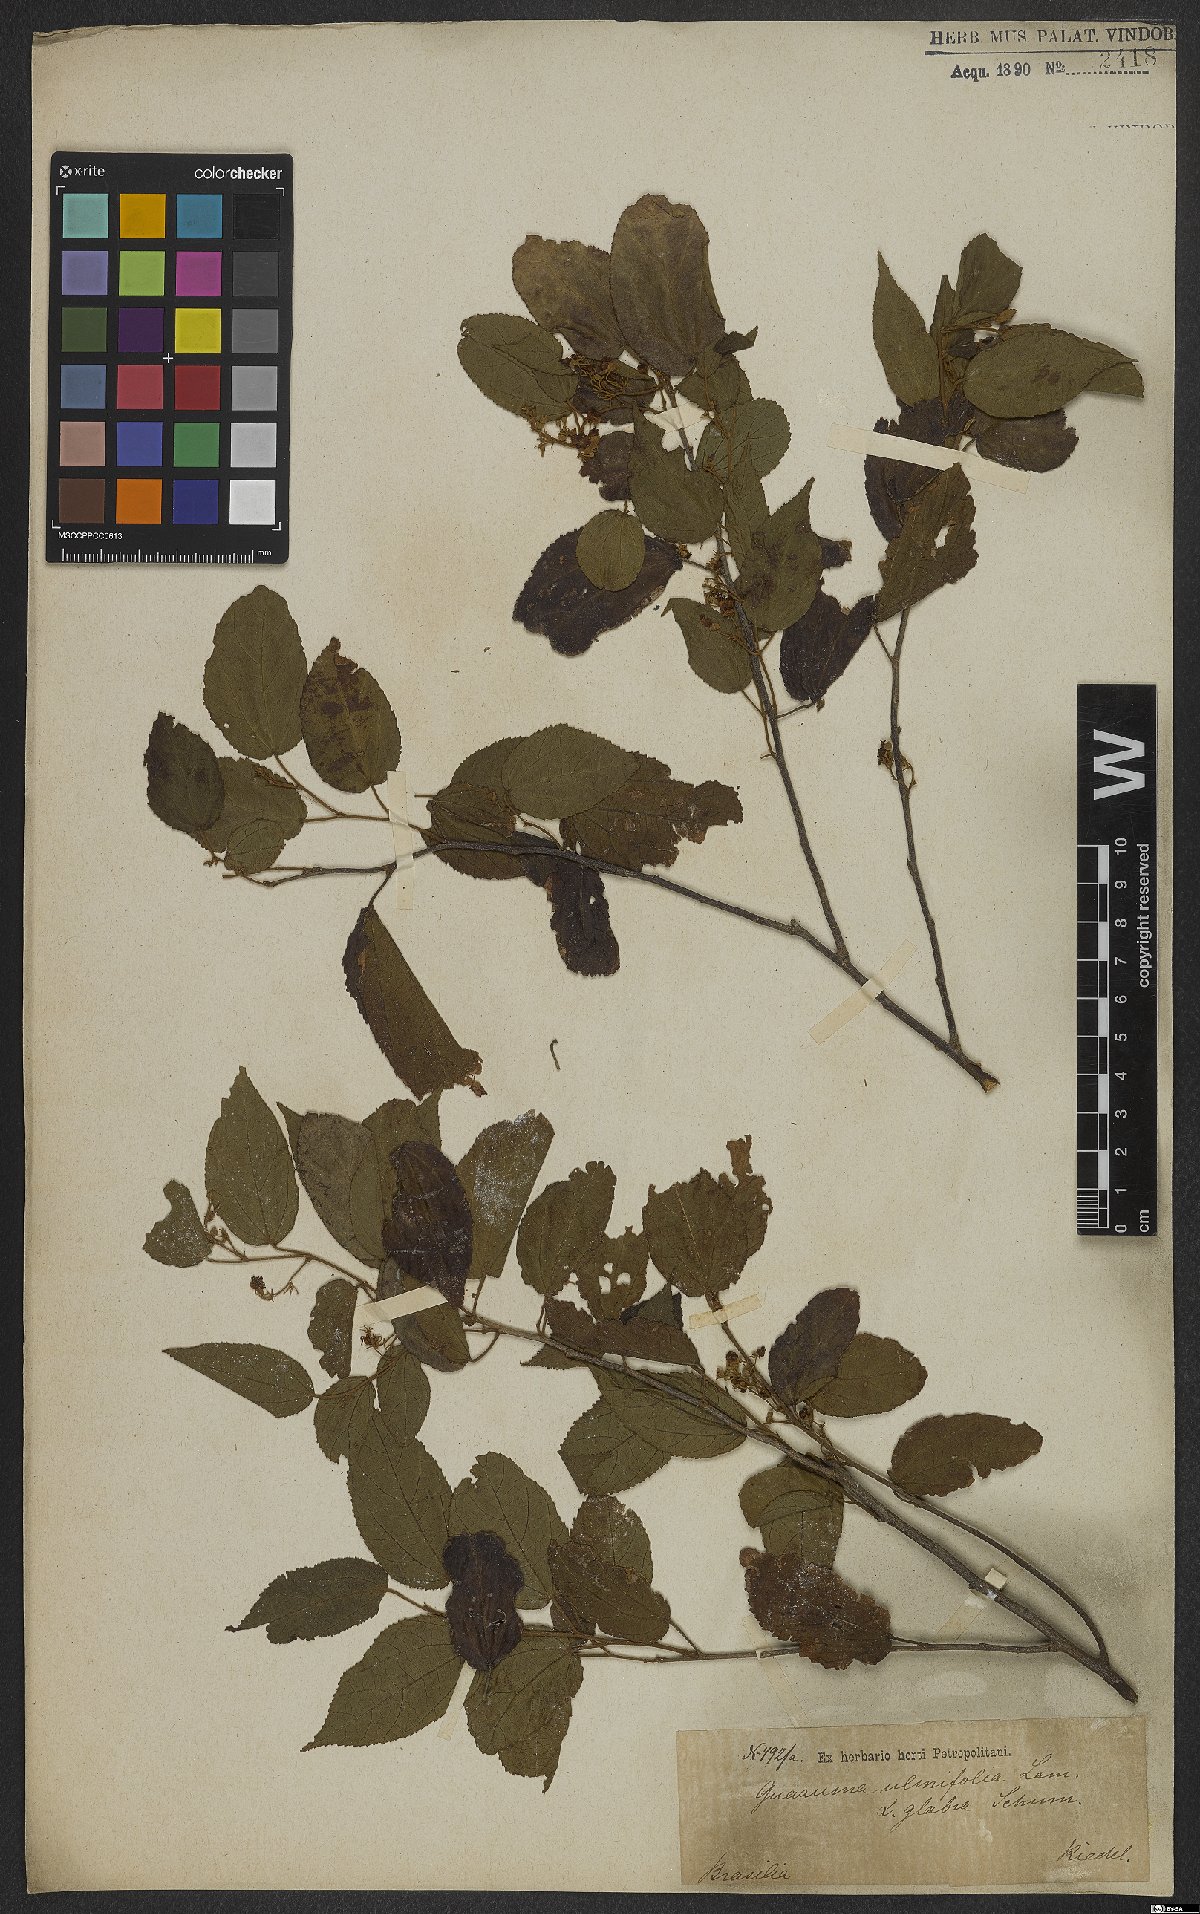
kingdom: Plantae
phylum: Tracheophyta
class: Magnoliopsida
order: Malvales
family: Malvaceae
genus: Guazuma
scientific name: Guazuma ulmifolia
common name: Bastard-cedar
